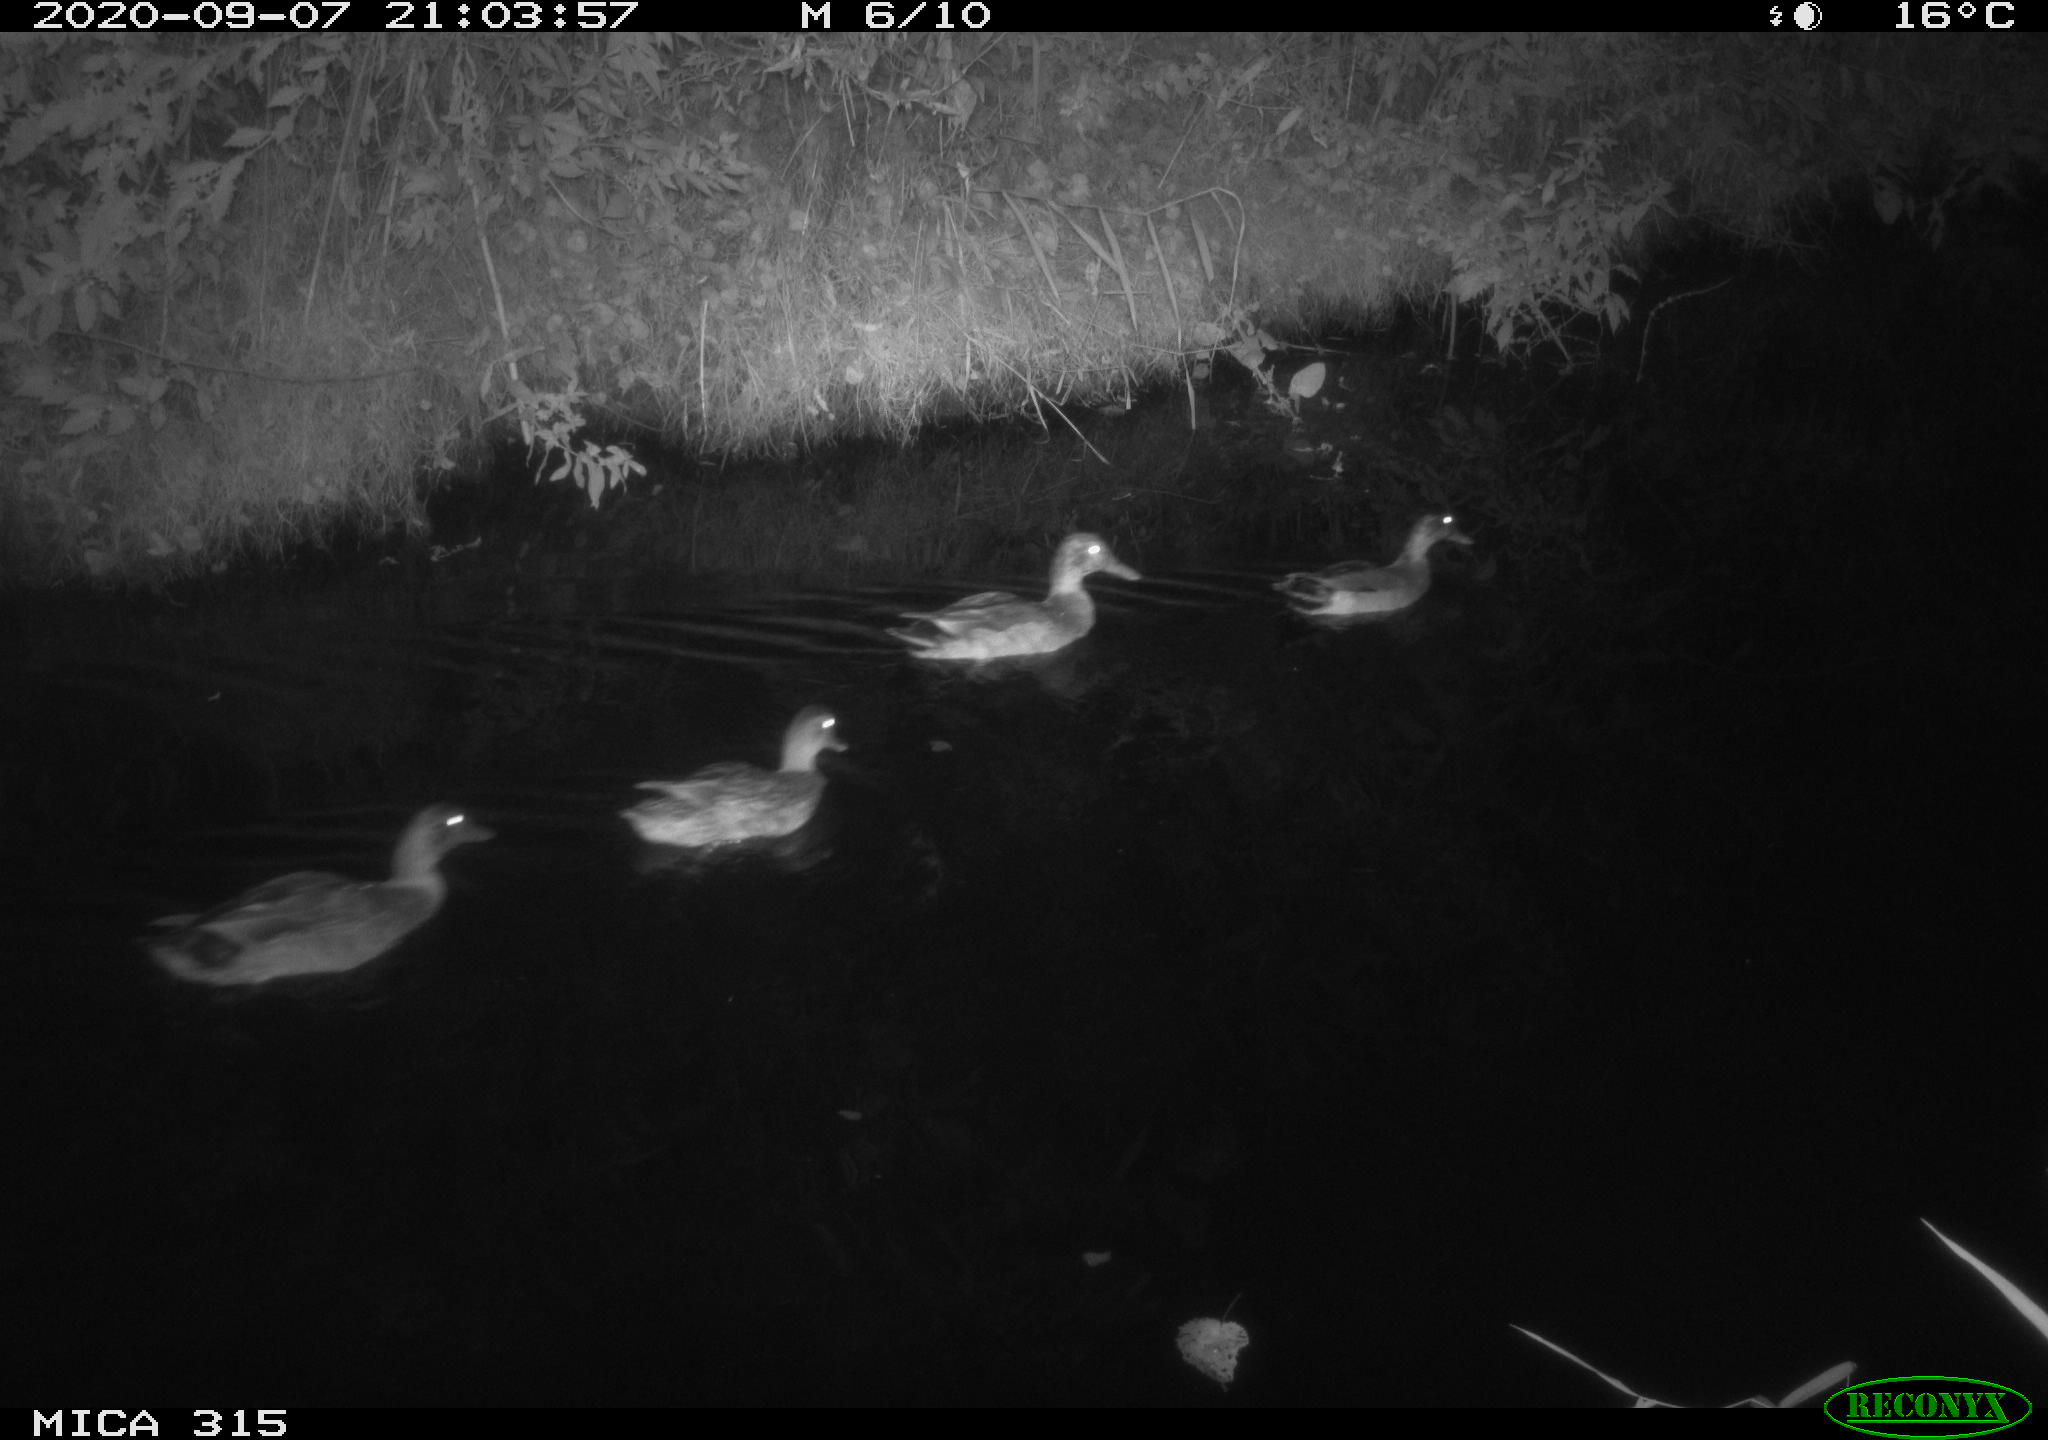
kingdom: Animalia
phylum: Chordata
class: Aves
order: Anseriformes
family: Anatidae
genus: Anas
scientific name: Anas platyrhynchos
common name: Mallard
